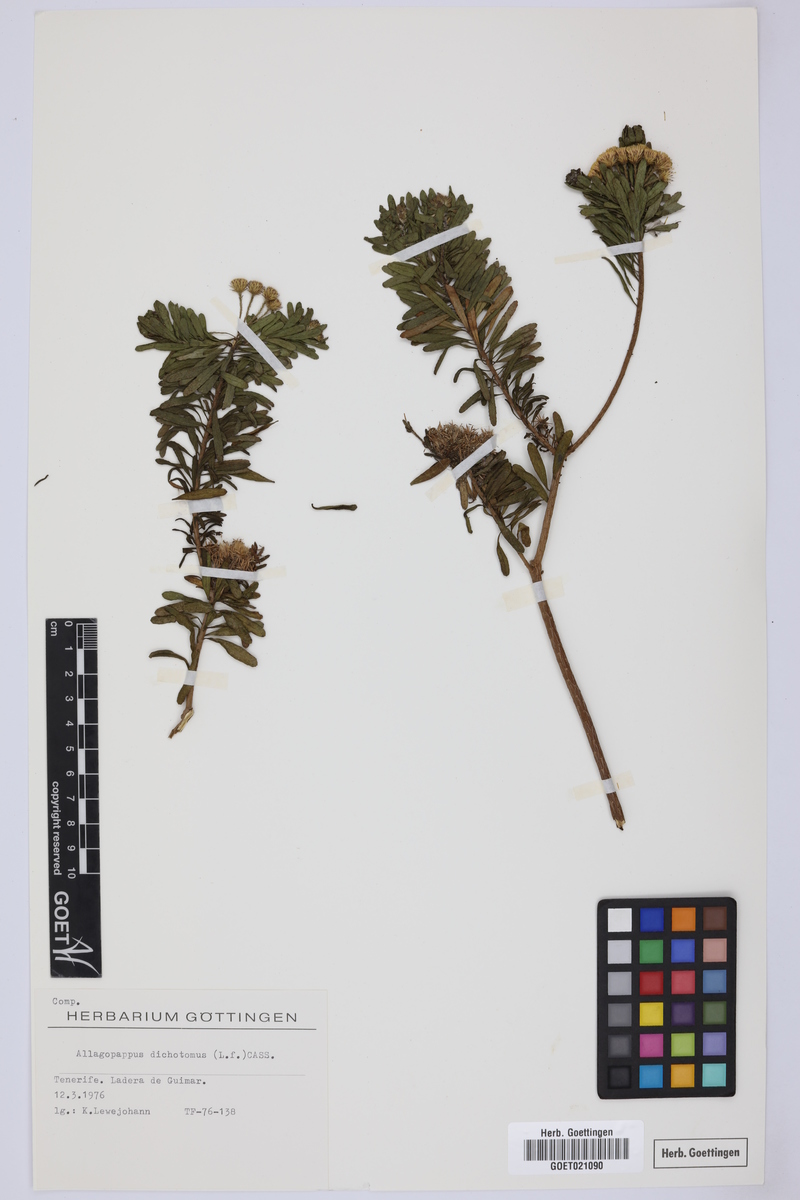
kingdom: Plantae
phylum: Tracheophyta
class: Magnoliopsida
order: Asterales
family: Asteraceae
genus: Allagopappus
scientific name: Allagopappus canariensis
